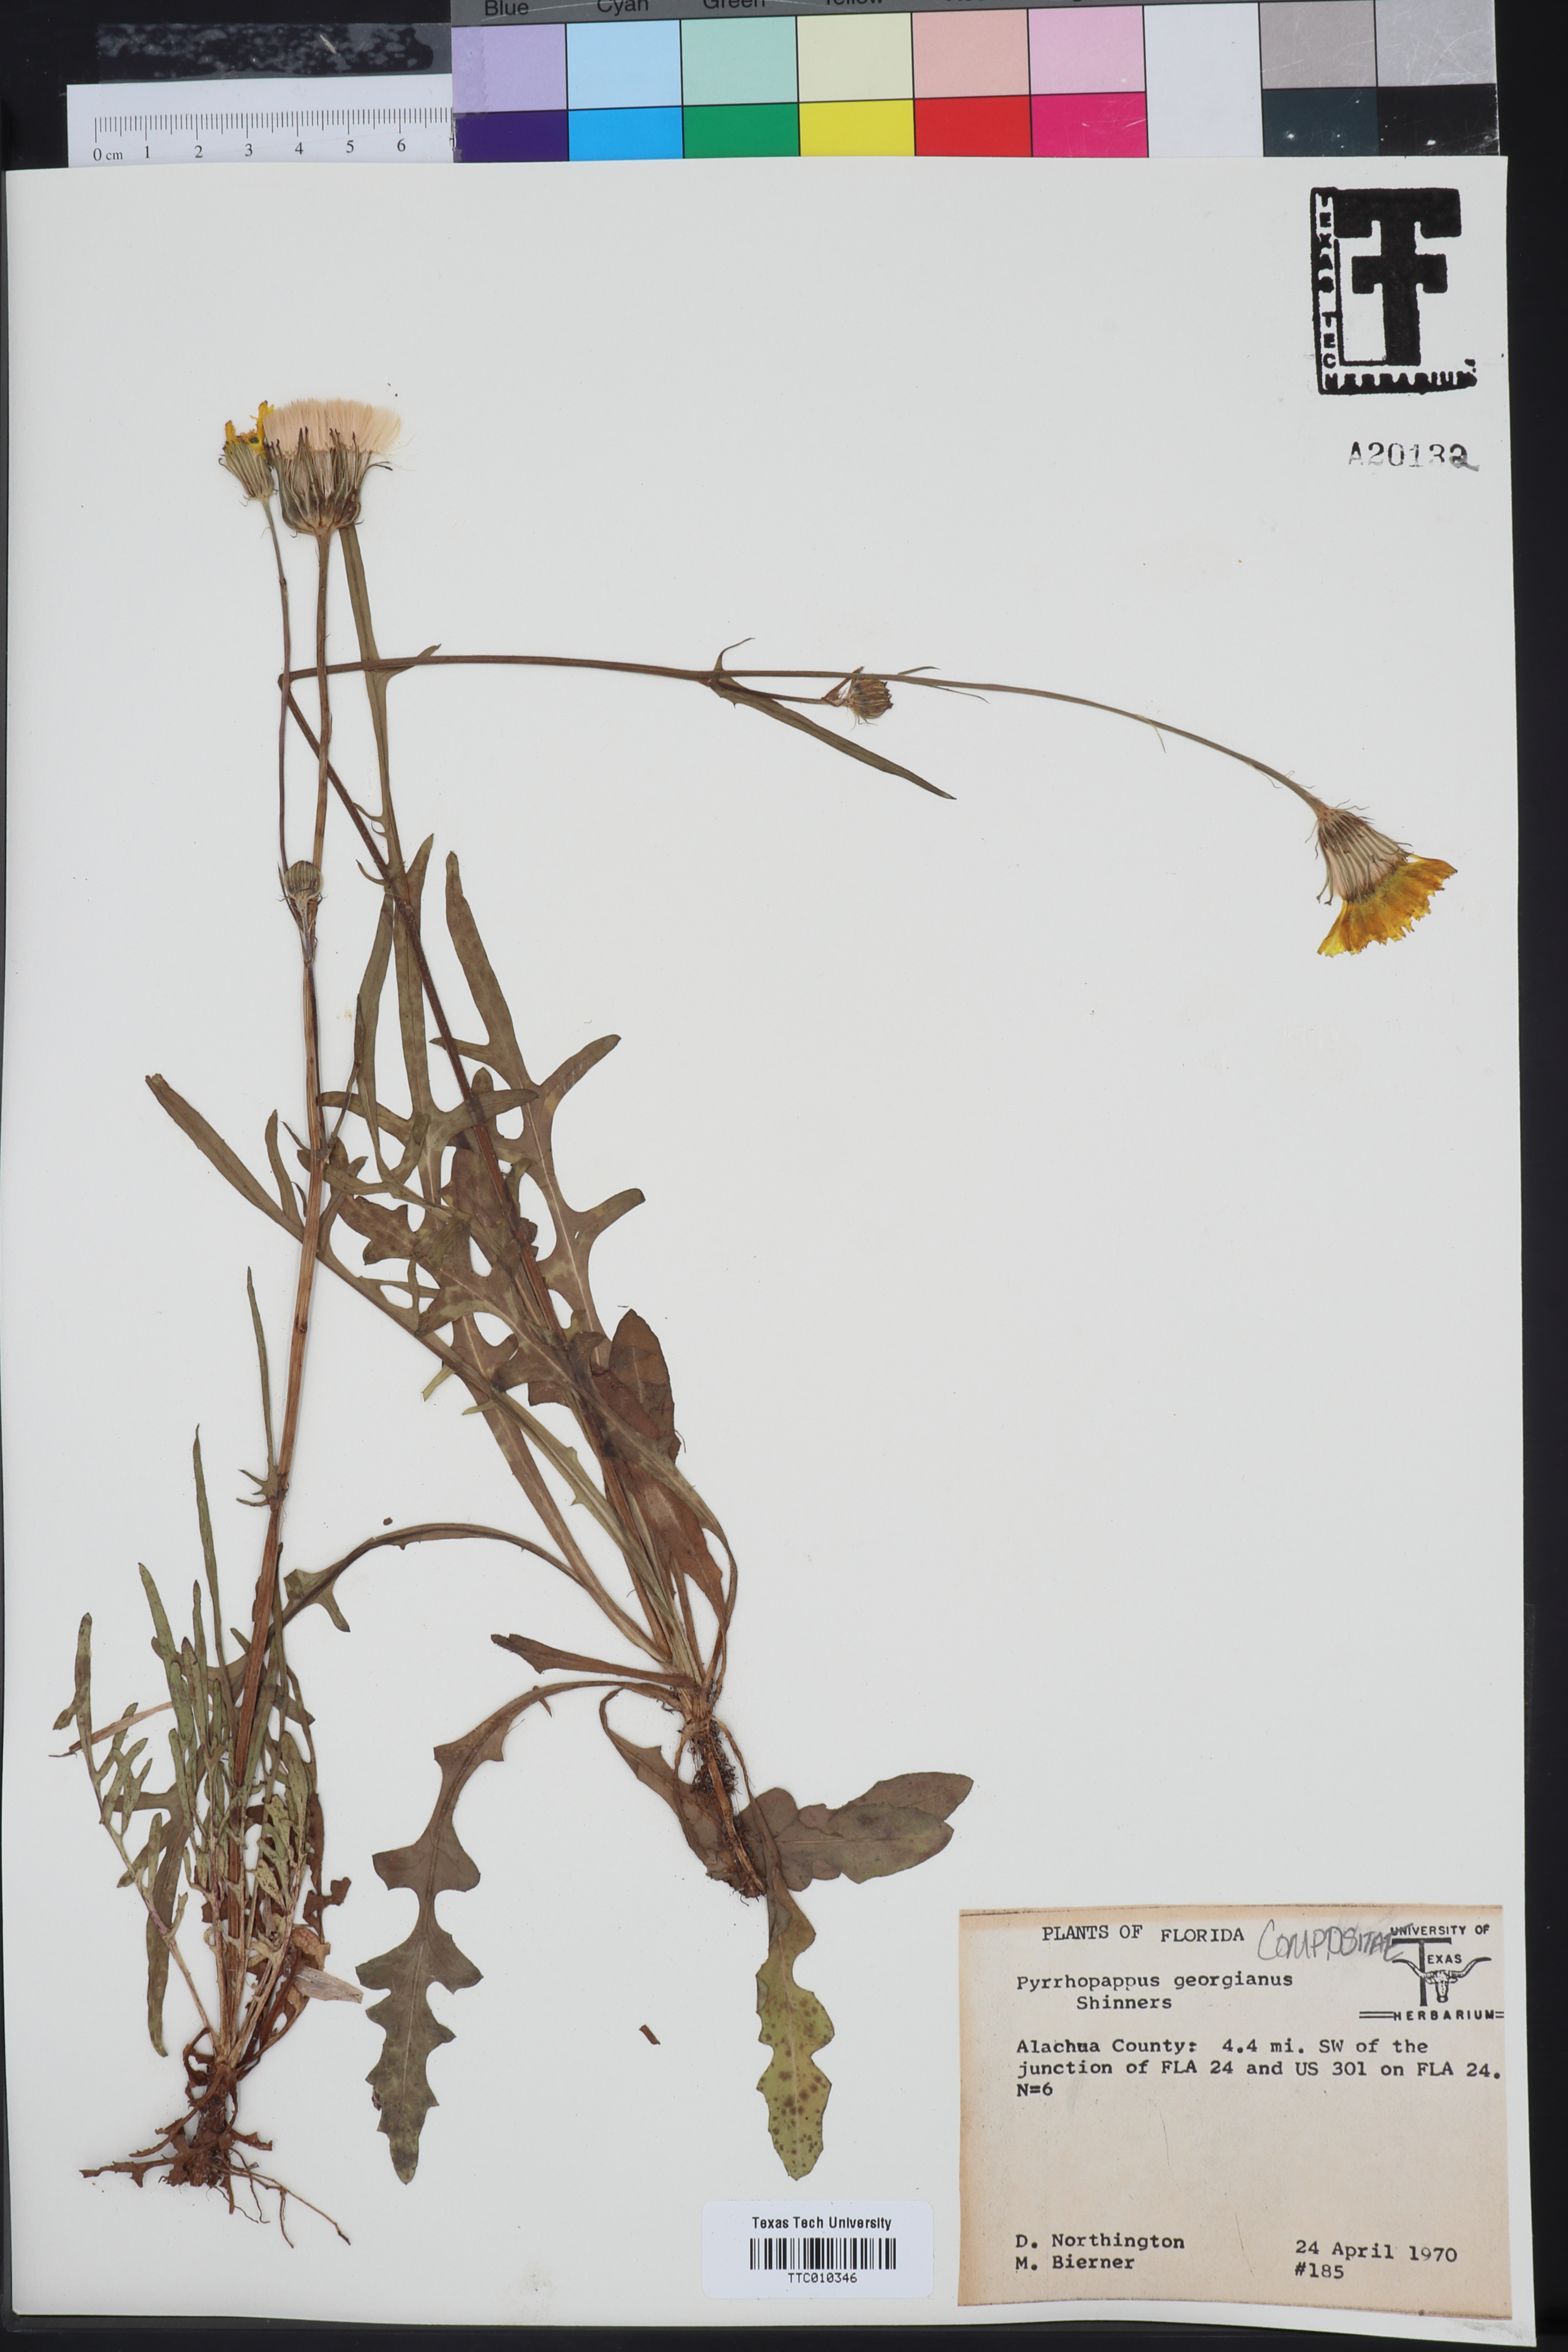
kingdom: Plantae
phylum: Tracheophyta
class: Magnoliopsida
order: Asterales
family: Asteraceae
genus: Pyrrhopappus
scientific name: Pyrrhopappus carolinianus
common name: Carolina desert-chicory
